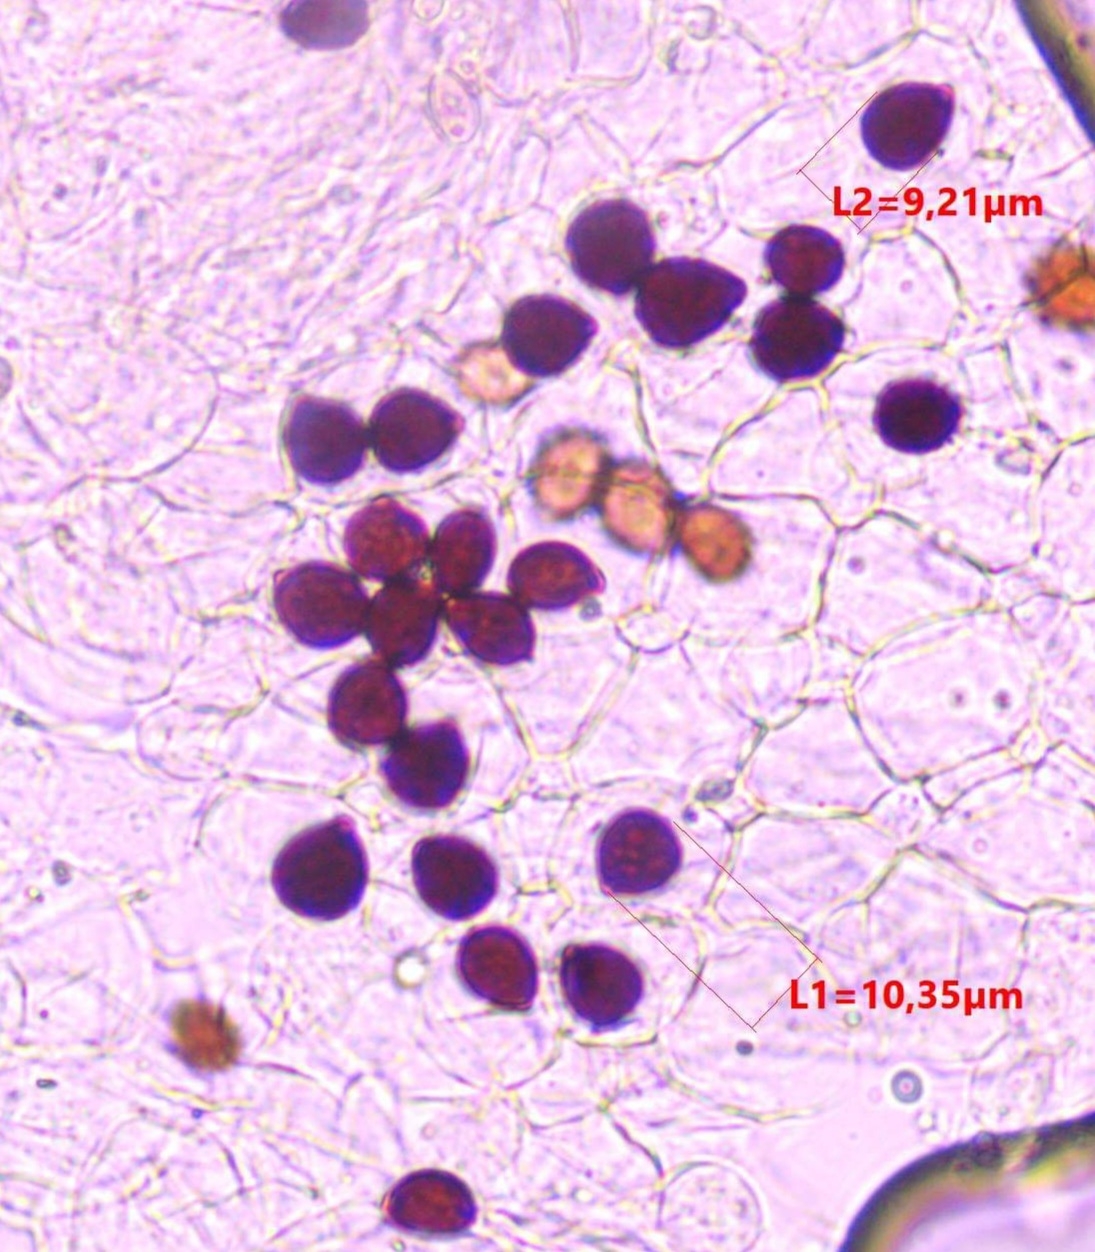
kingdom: Fungi
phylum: Basidiomycota
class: Agaricomycetes
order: Agaricales
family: Psathyrellaceae
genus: Parasola
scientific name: Parasola lactea
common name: glat hjulhat
